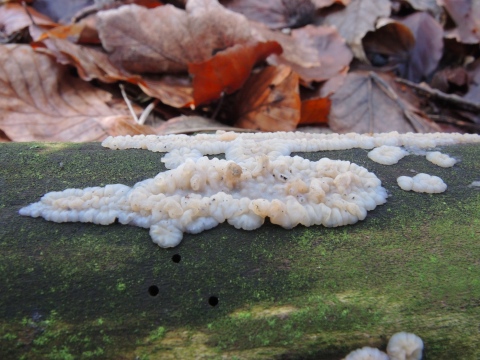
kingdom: Fungi
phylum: Basidiomycota
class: Agaricomycetes
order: Auriculariales
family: Auriculariaceae
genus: Exidia
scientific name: Exidia thuretiana
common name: hvidlig bævretop
